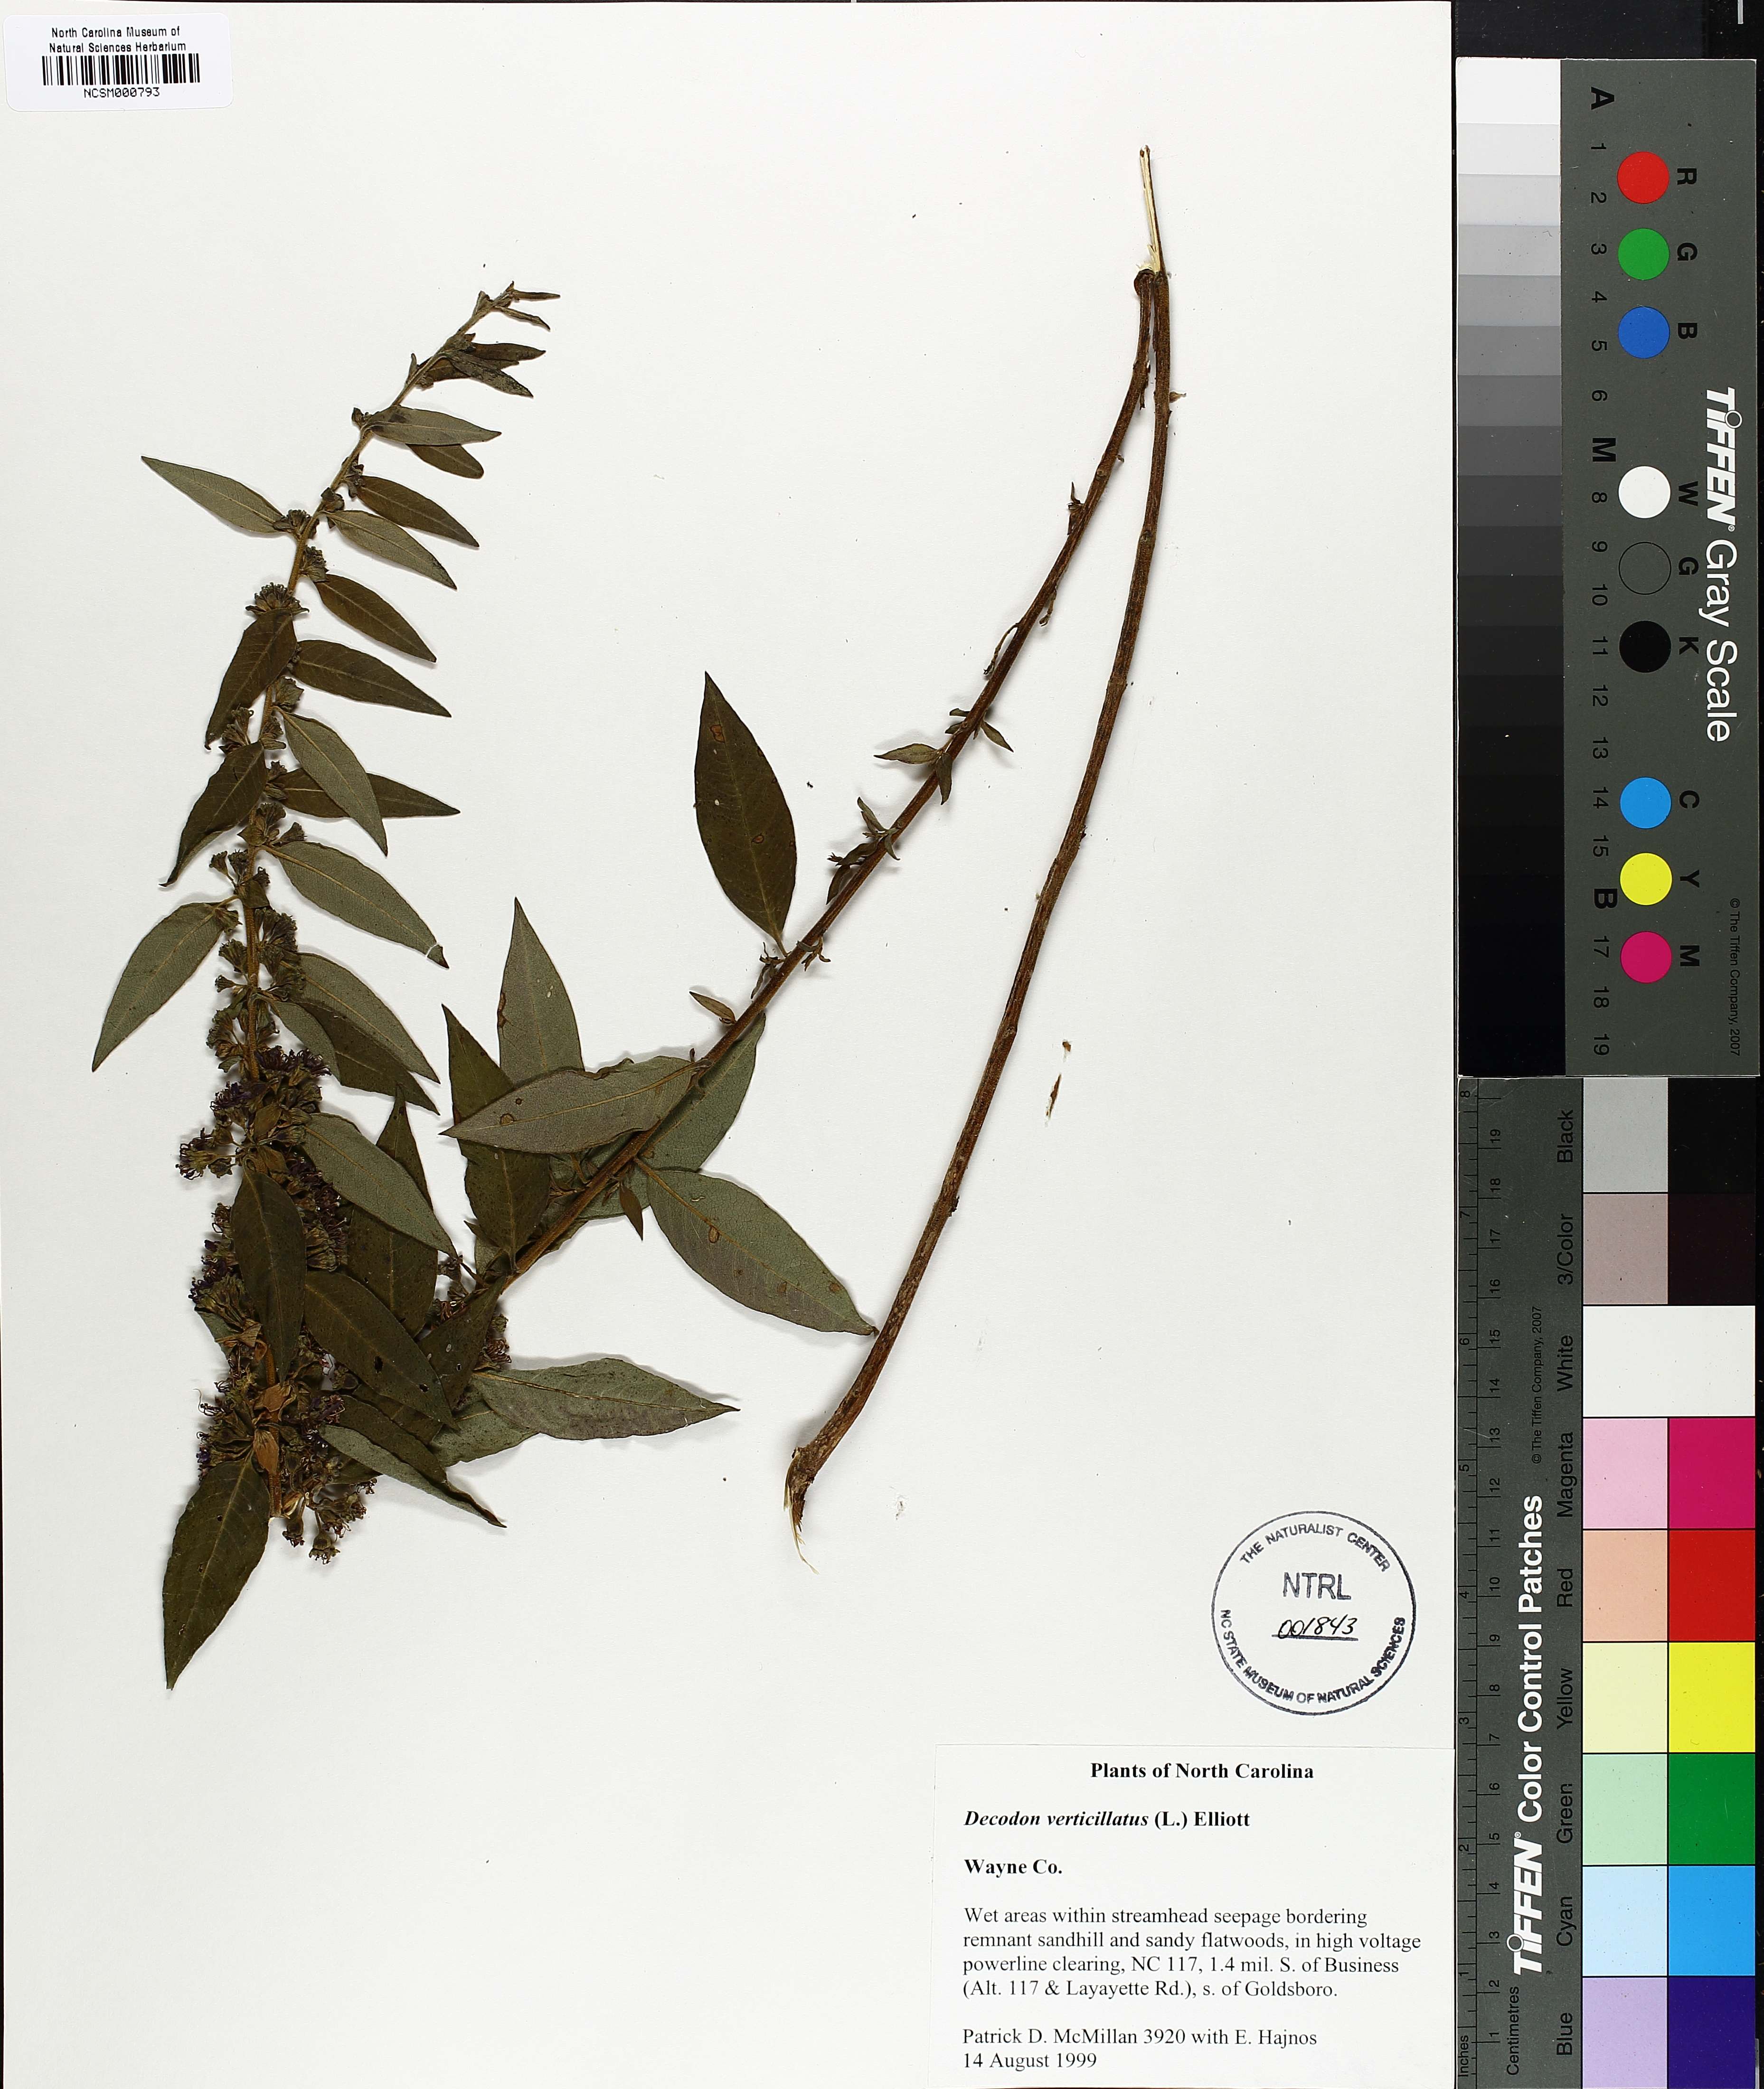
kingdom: Plantae
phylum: Tracheophyta
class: Magnoliopsida
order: Myrtales
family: Lythraceae
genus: Decodon
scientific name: Decodon verticillatus
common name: Hairy swamp loosestrife
